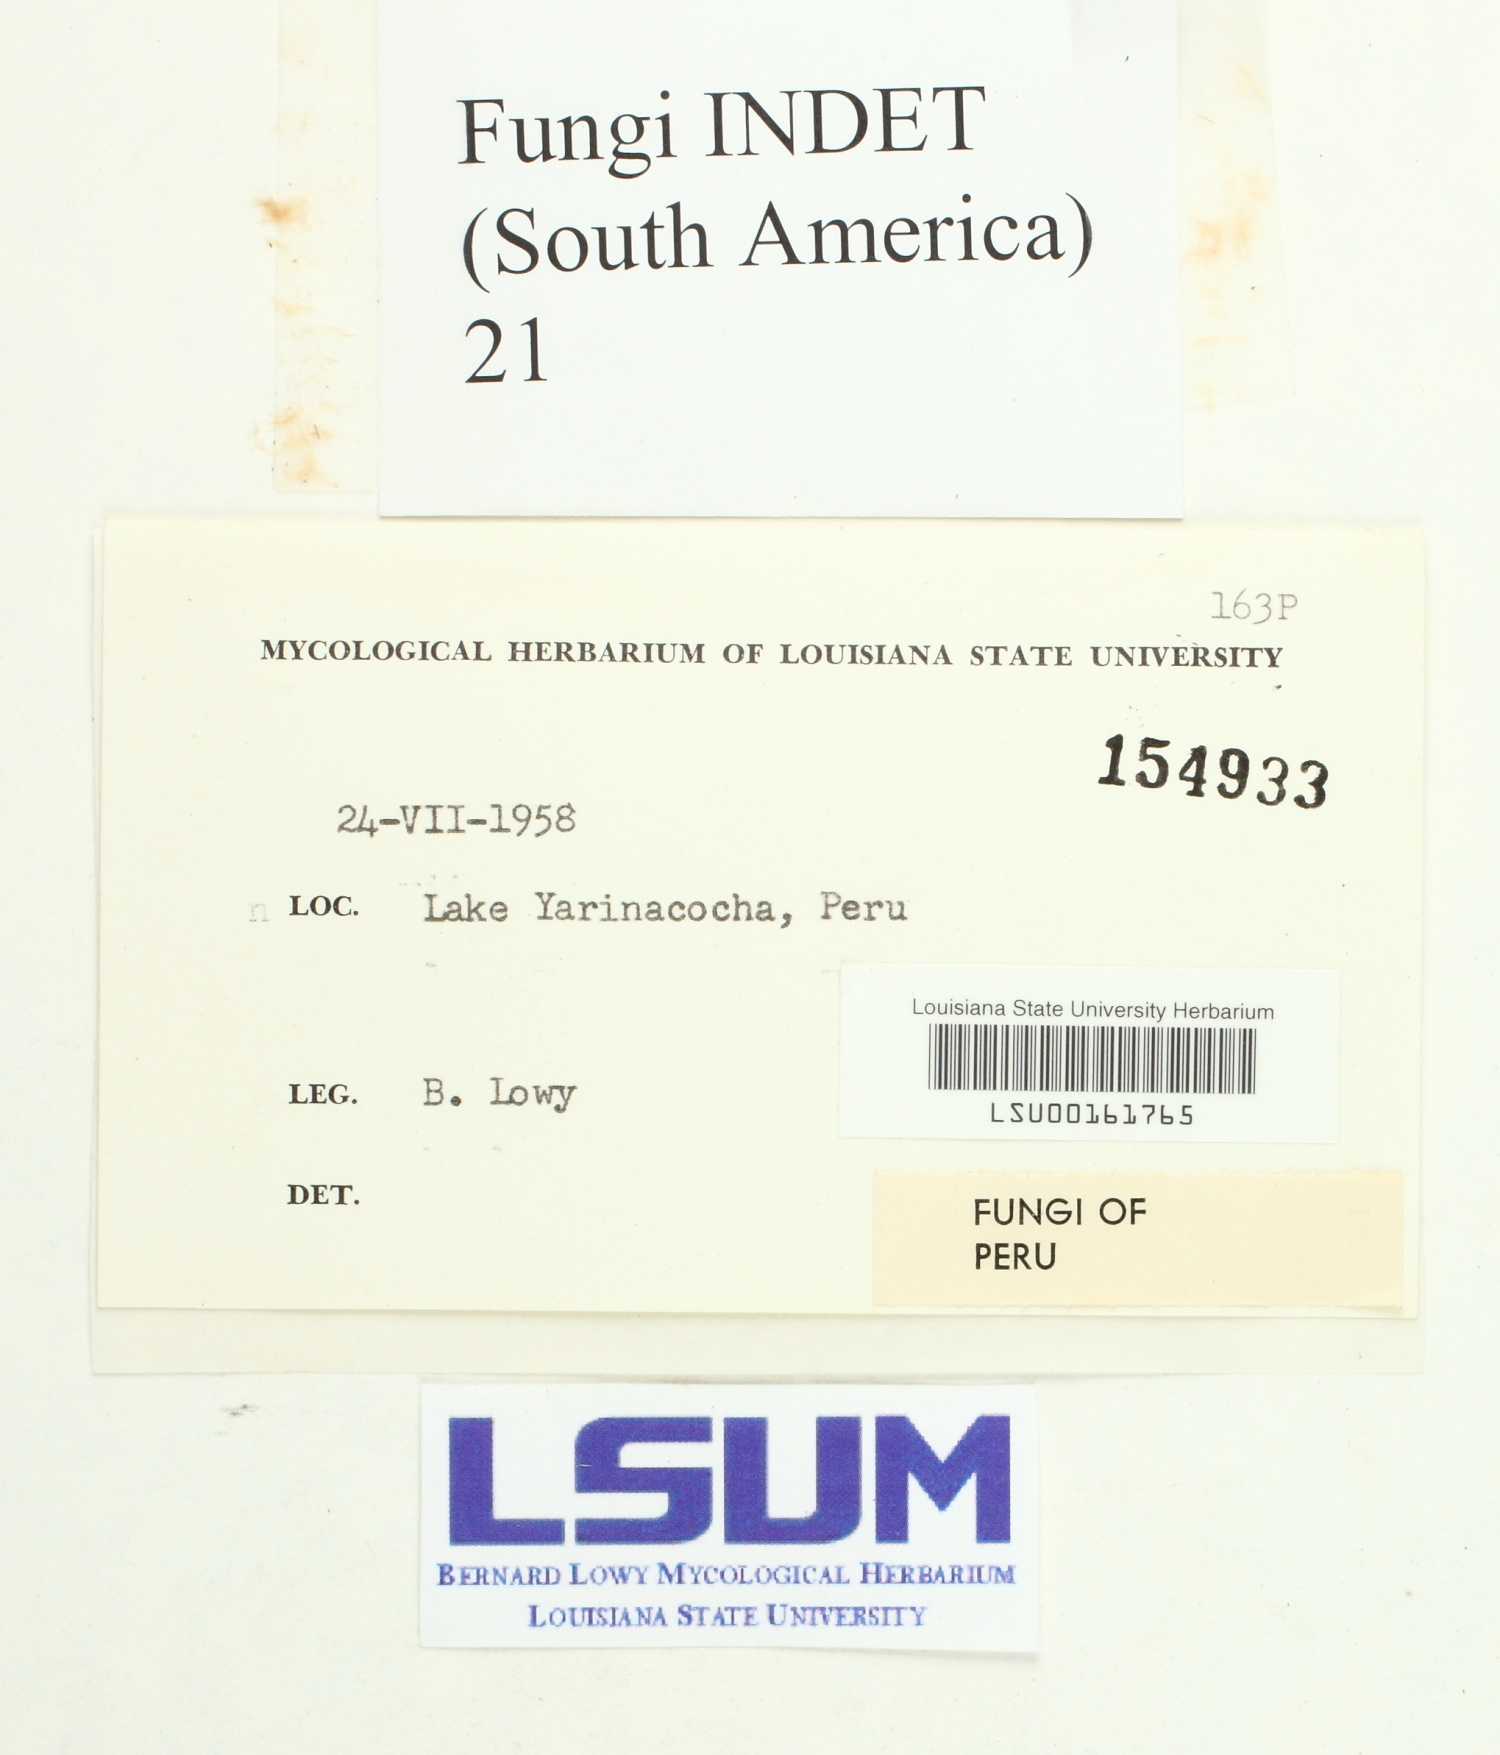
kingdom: Fungi
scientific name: Fungi
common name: Fungi
